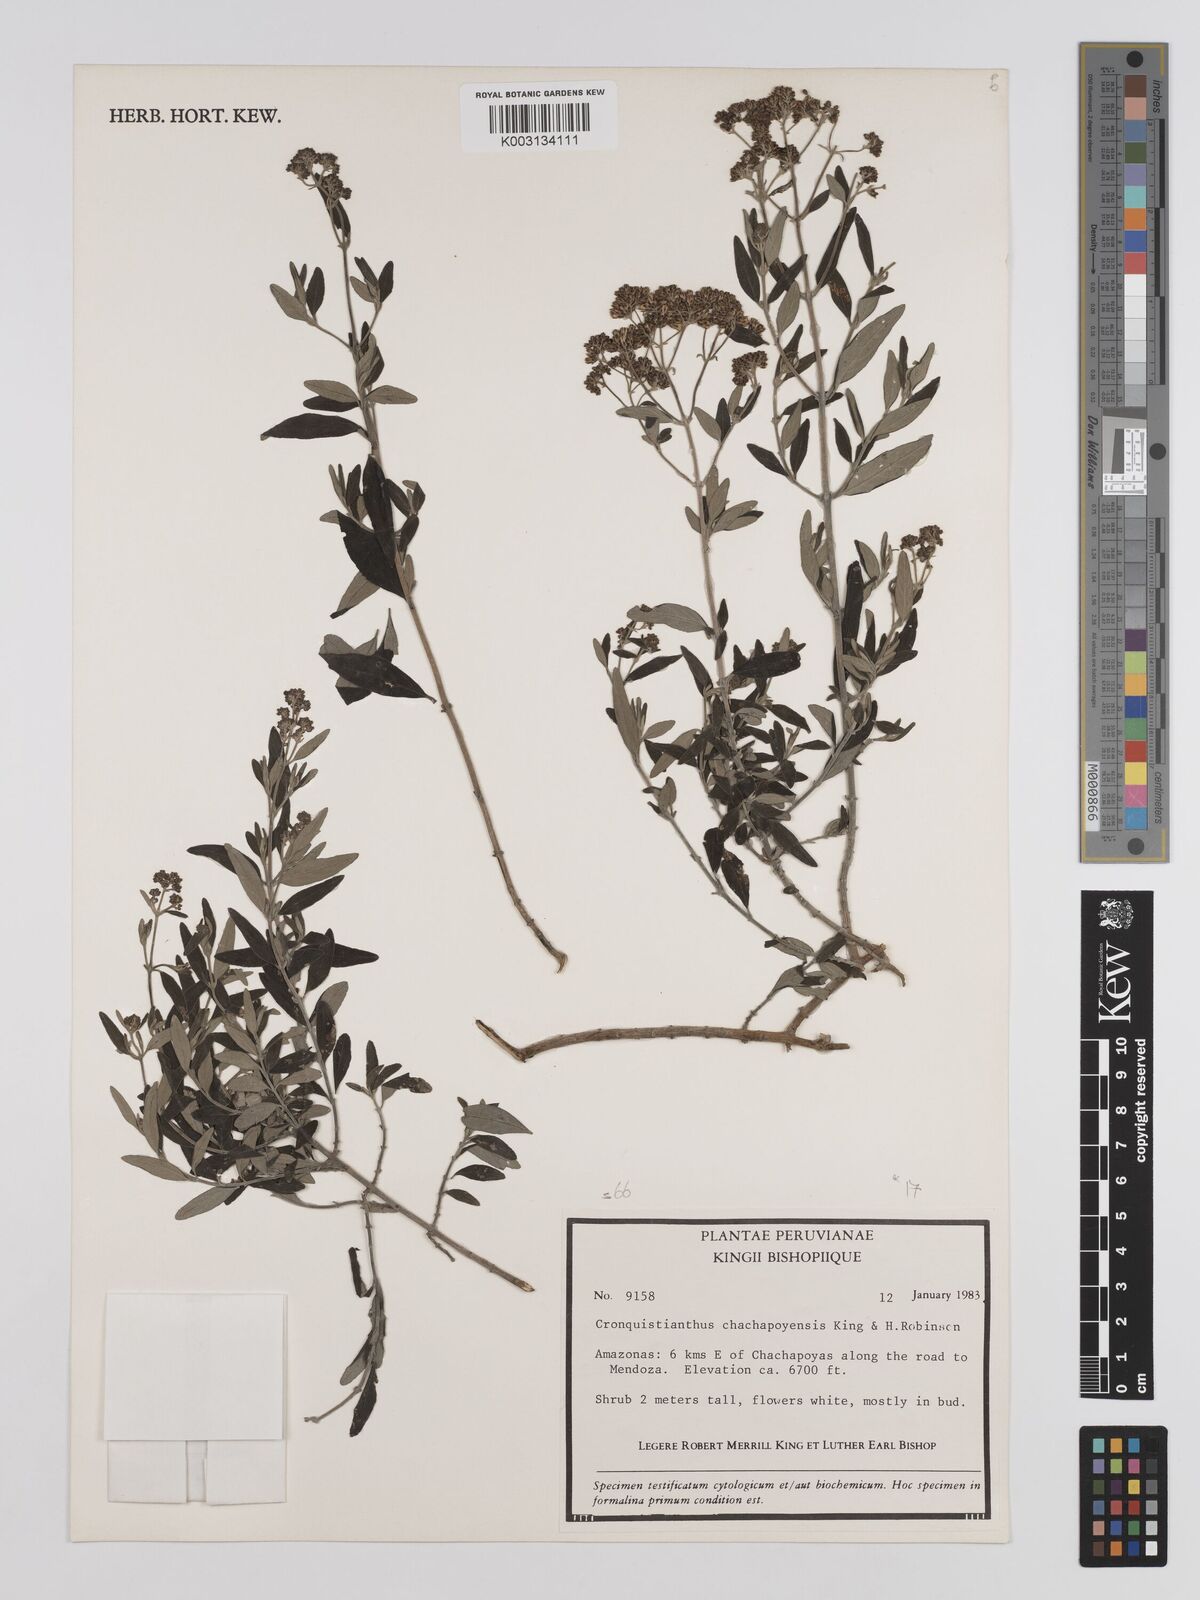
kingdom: Plantae
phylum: Tracheophyta
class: Magnoliopsida
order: Asterales
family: Asteraceae
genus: Cronquistianthus
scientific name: Cronquistianthus chachapoyensis
